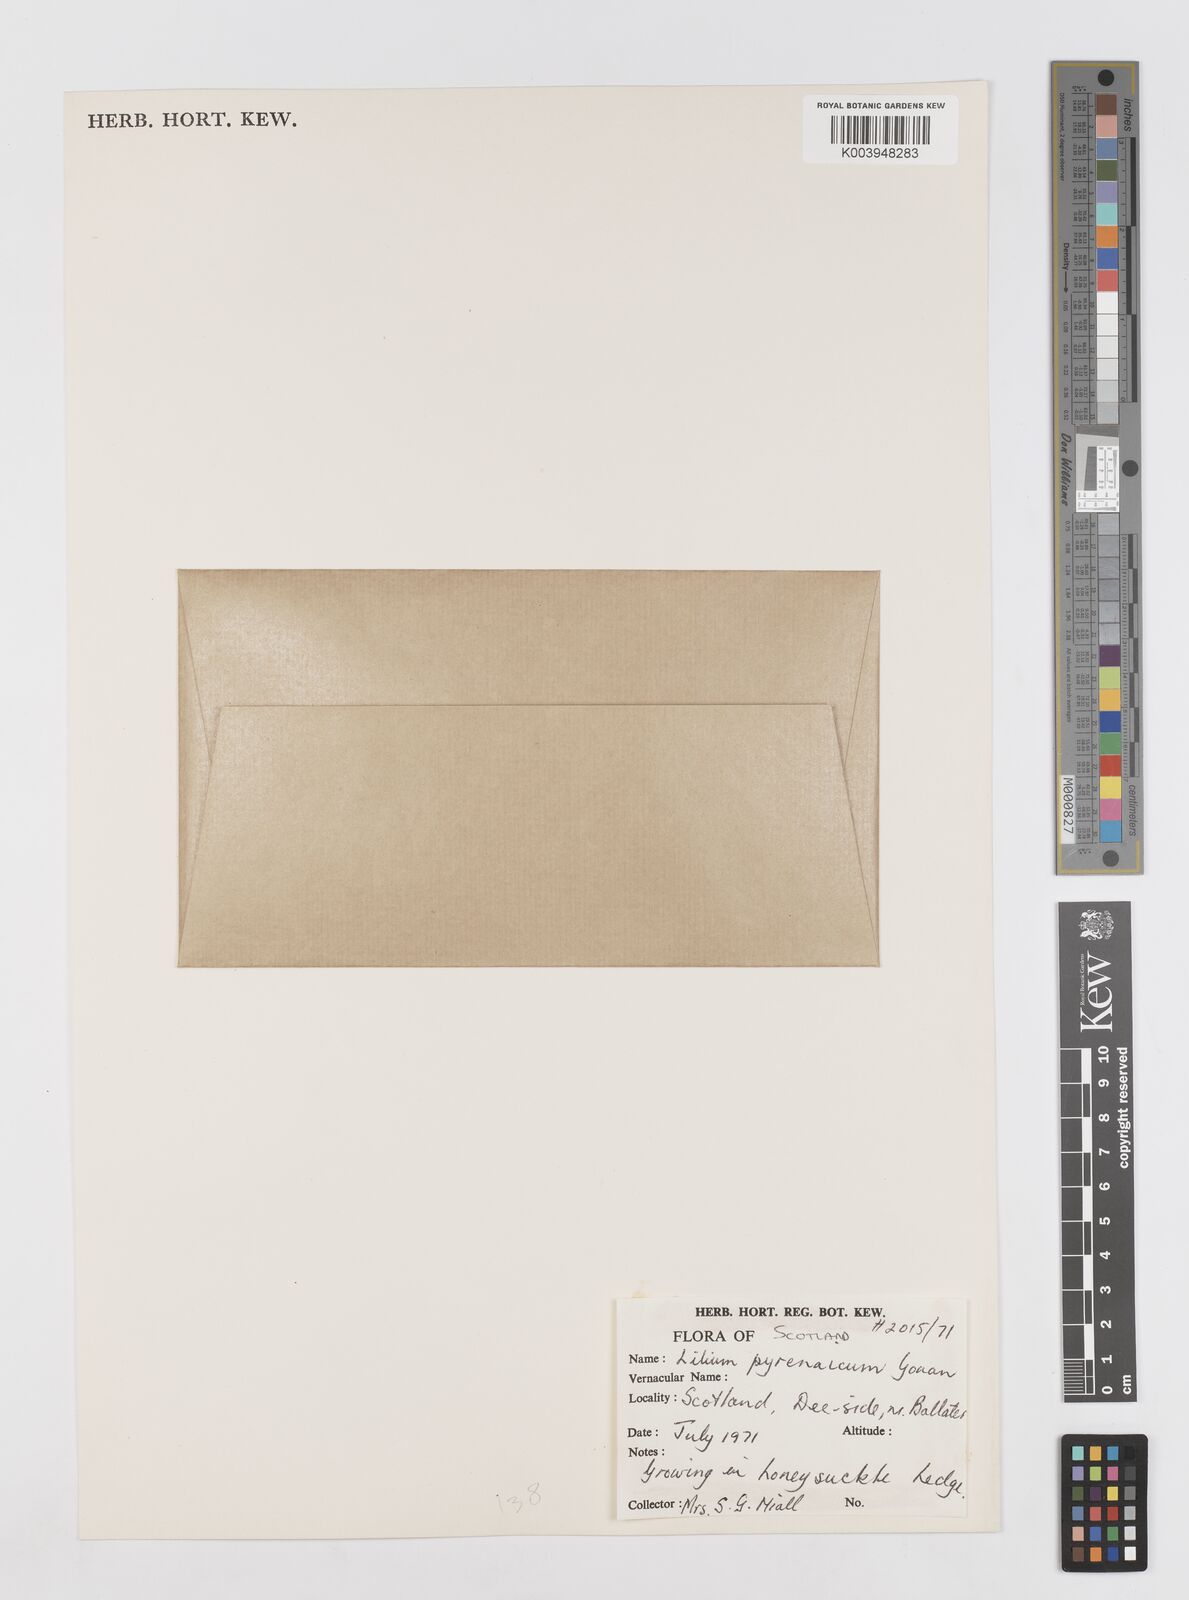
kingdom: Plantae
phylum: Tracheophyta
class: Liliopsida
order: Liliales
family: Liliaceae
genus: Lilium
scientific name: Lilium pyrenaicum
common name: Pyrenean lily
